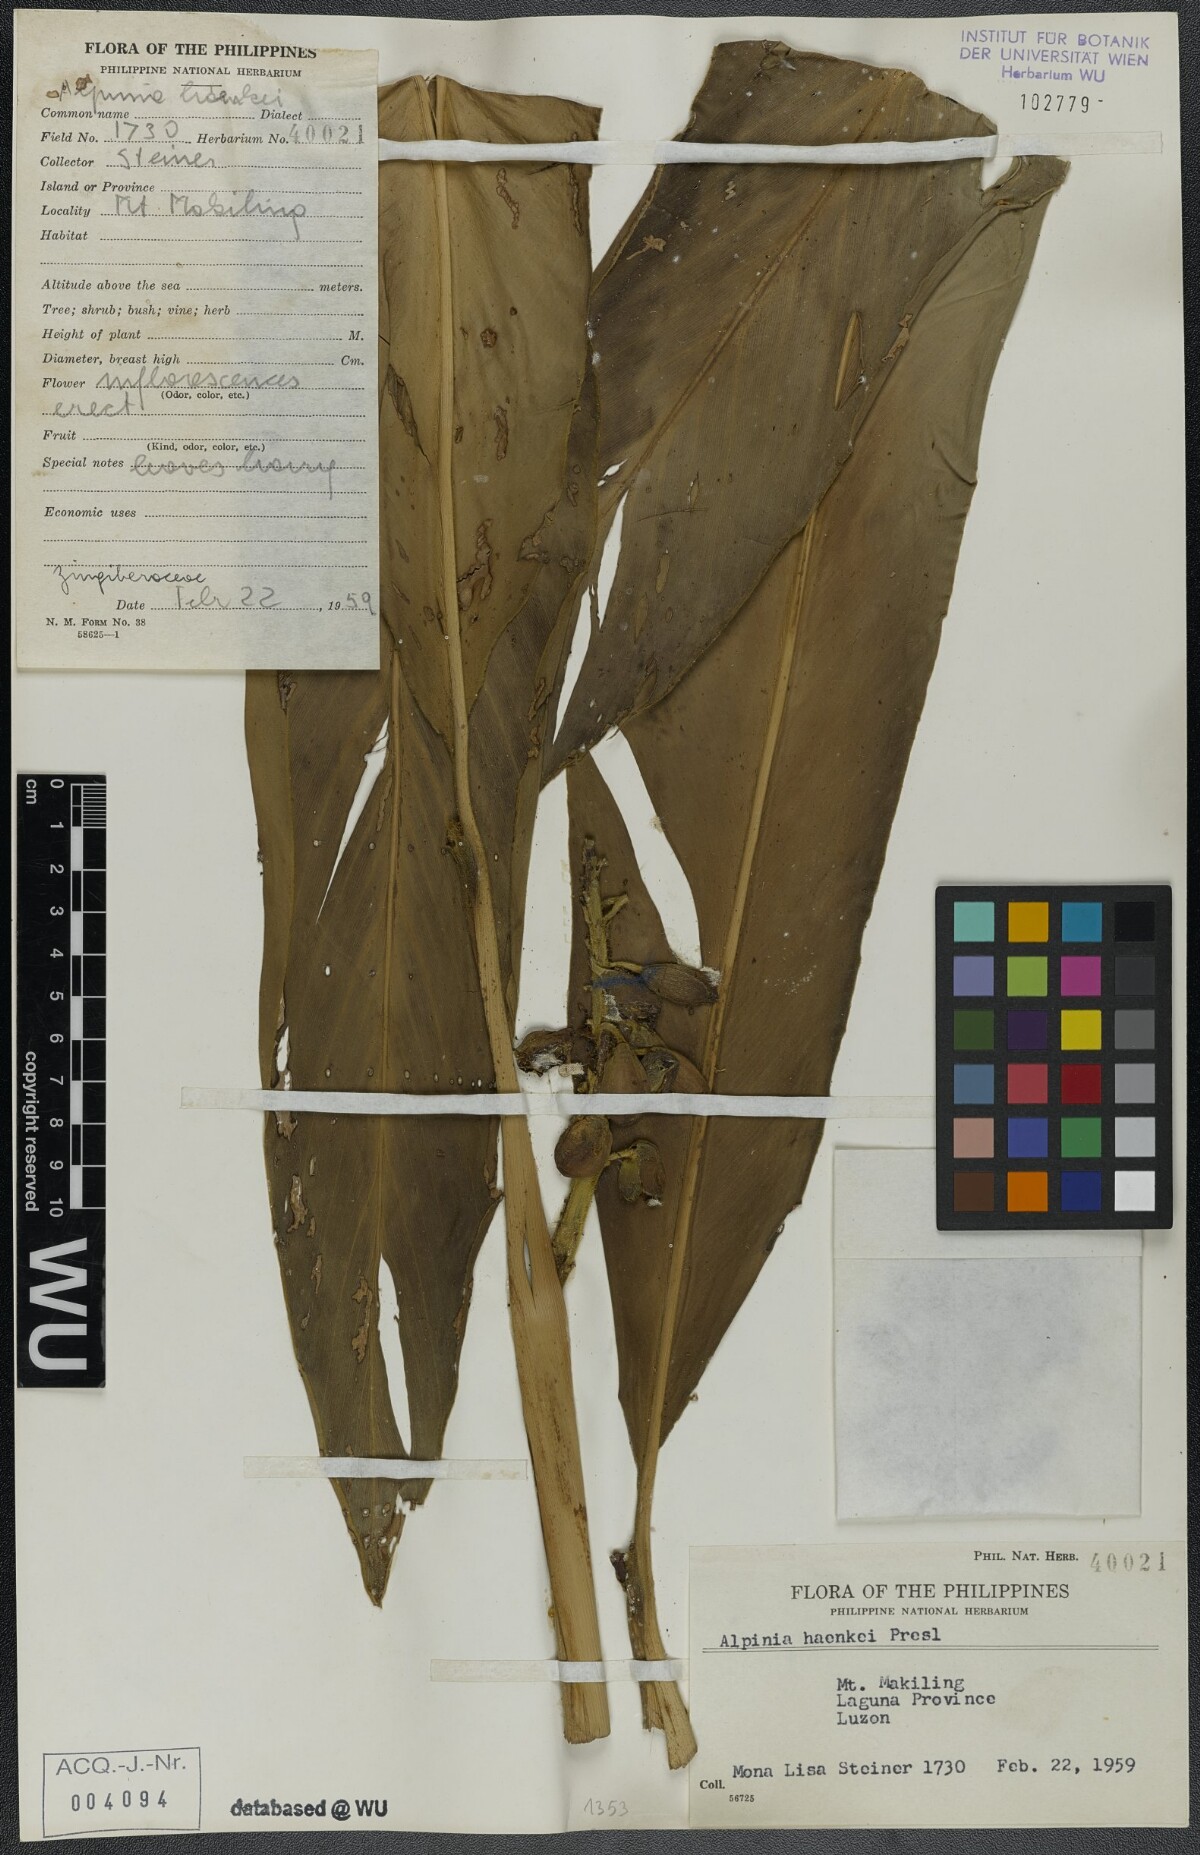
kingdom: Plantae
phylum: Tracheophyta
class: Liliopsida
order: Zingiberales
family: Zingiberaceae
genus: Alpinia
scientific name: Alpinia haenkei
